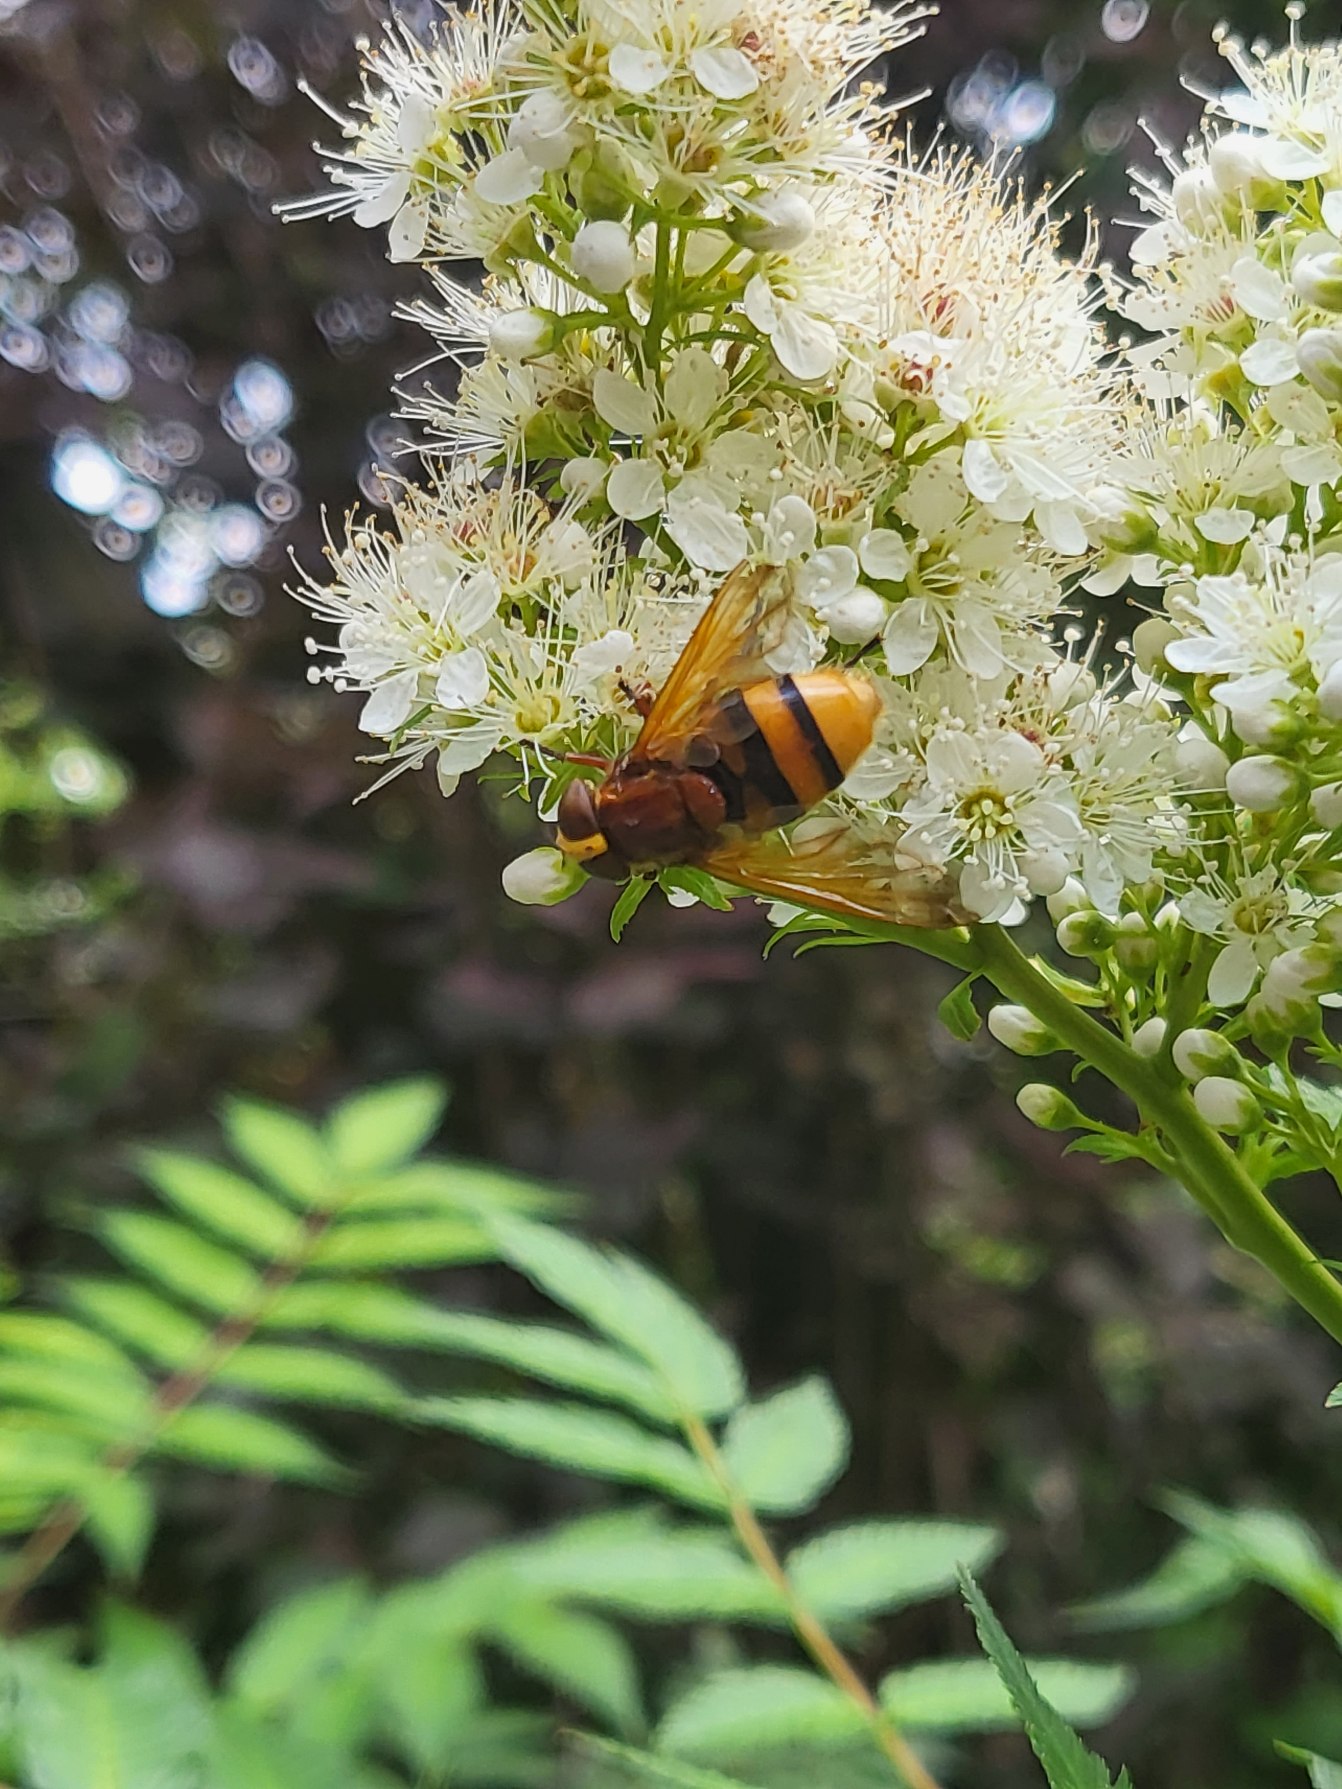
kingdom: Animalia
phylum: Arthropoda
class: Insecta
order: Diptera
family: Syrphidae
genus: Volucella
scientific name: Volucella zonaria
